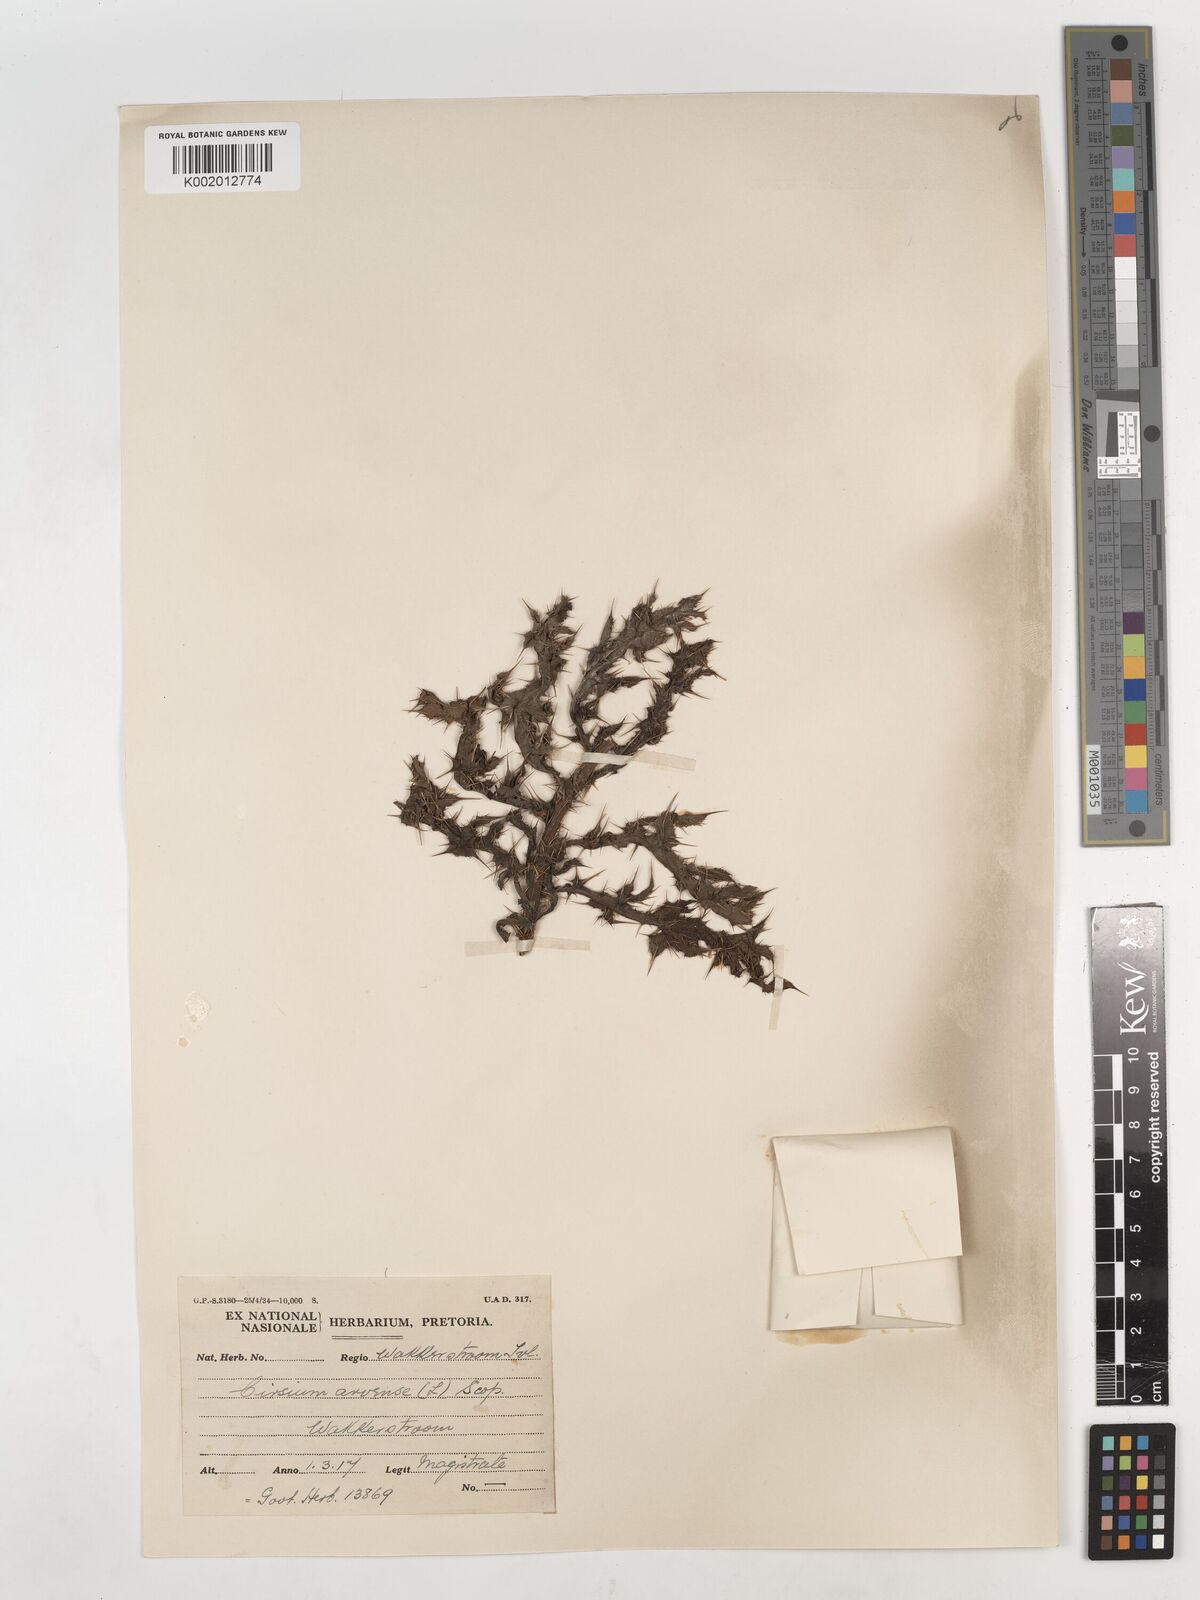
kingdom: Plantae
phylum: Tracheophyta
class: Magnoliopsida
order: Asterales
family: Asteraceae
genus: Cirsium
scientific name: Cirsium arvense
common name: Creeping thistle
